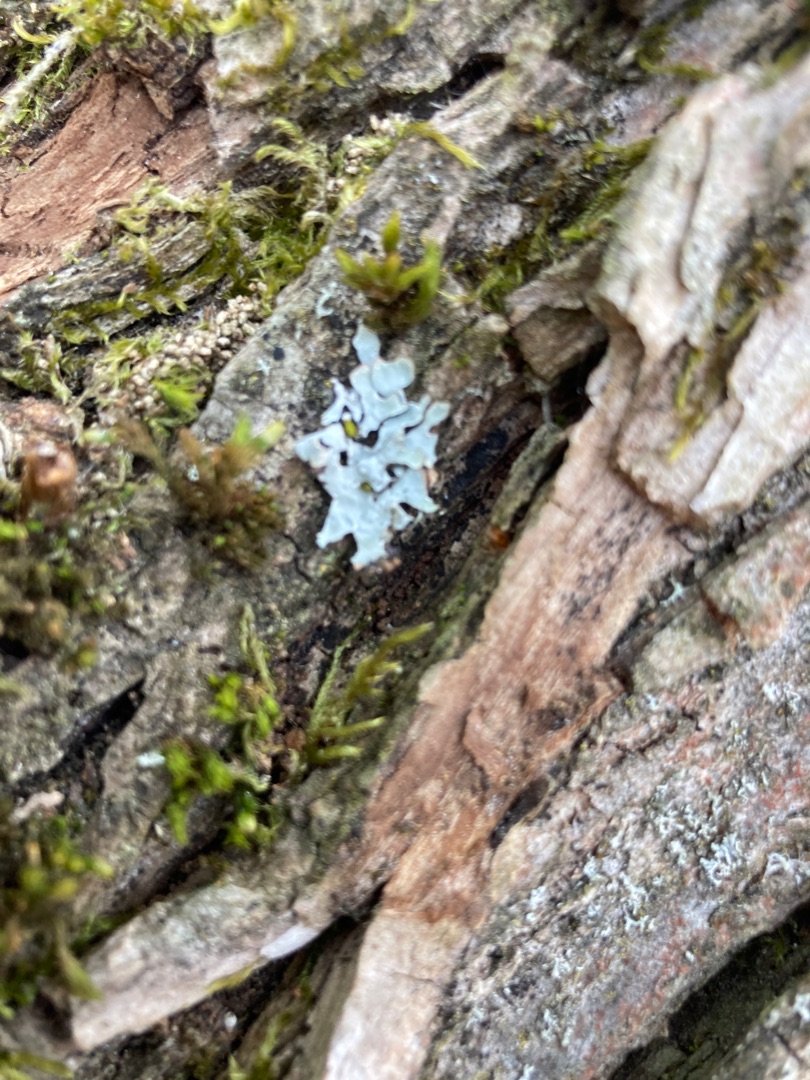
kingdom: Fungi
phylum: Ascomycota
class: Lecanoromycetes
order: Lecanorales
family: Parmeliaceae
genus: Parmelia
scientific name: Parmelia sulcata
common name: Rynket skållav
